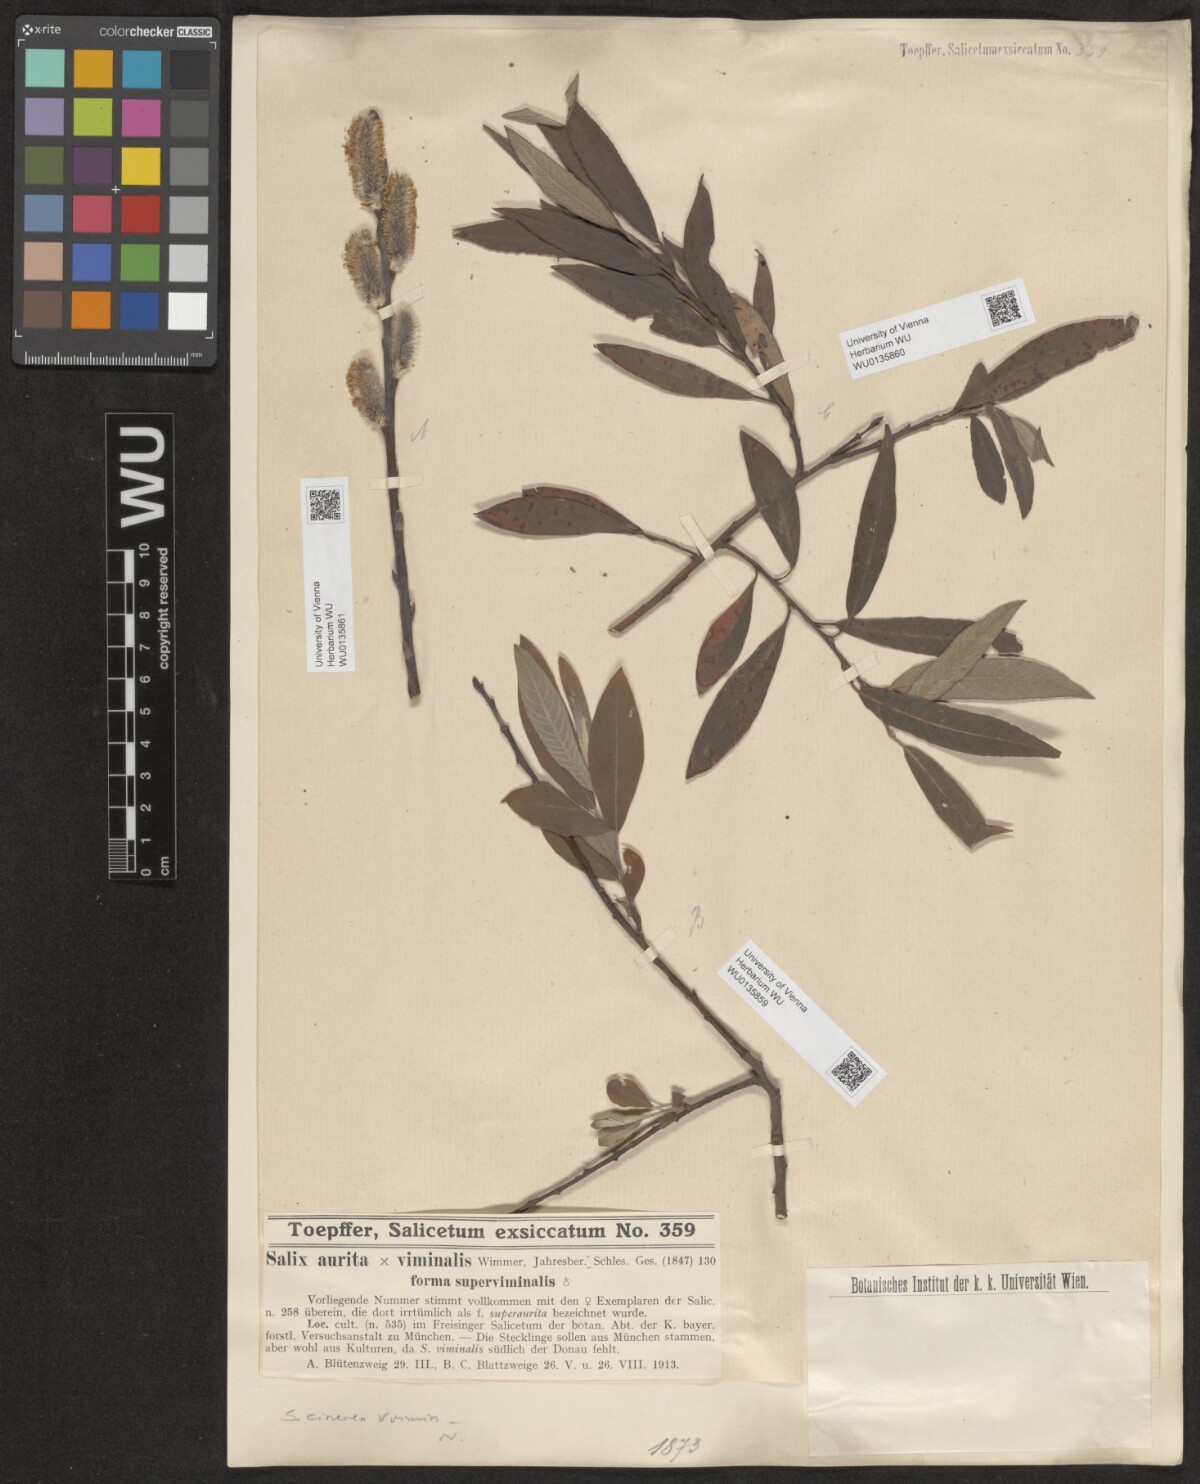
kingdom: Plantae
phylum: Tracheophyta
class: Magnoliopsida
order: Malpighiales
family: Salicaceae
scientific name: Salicaceae
